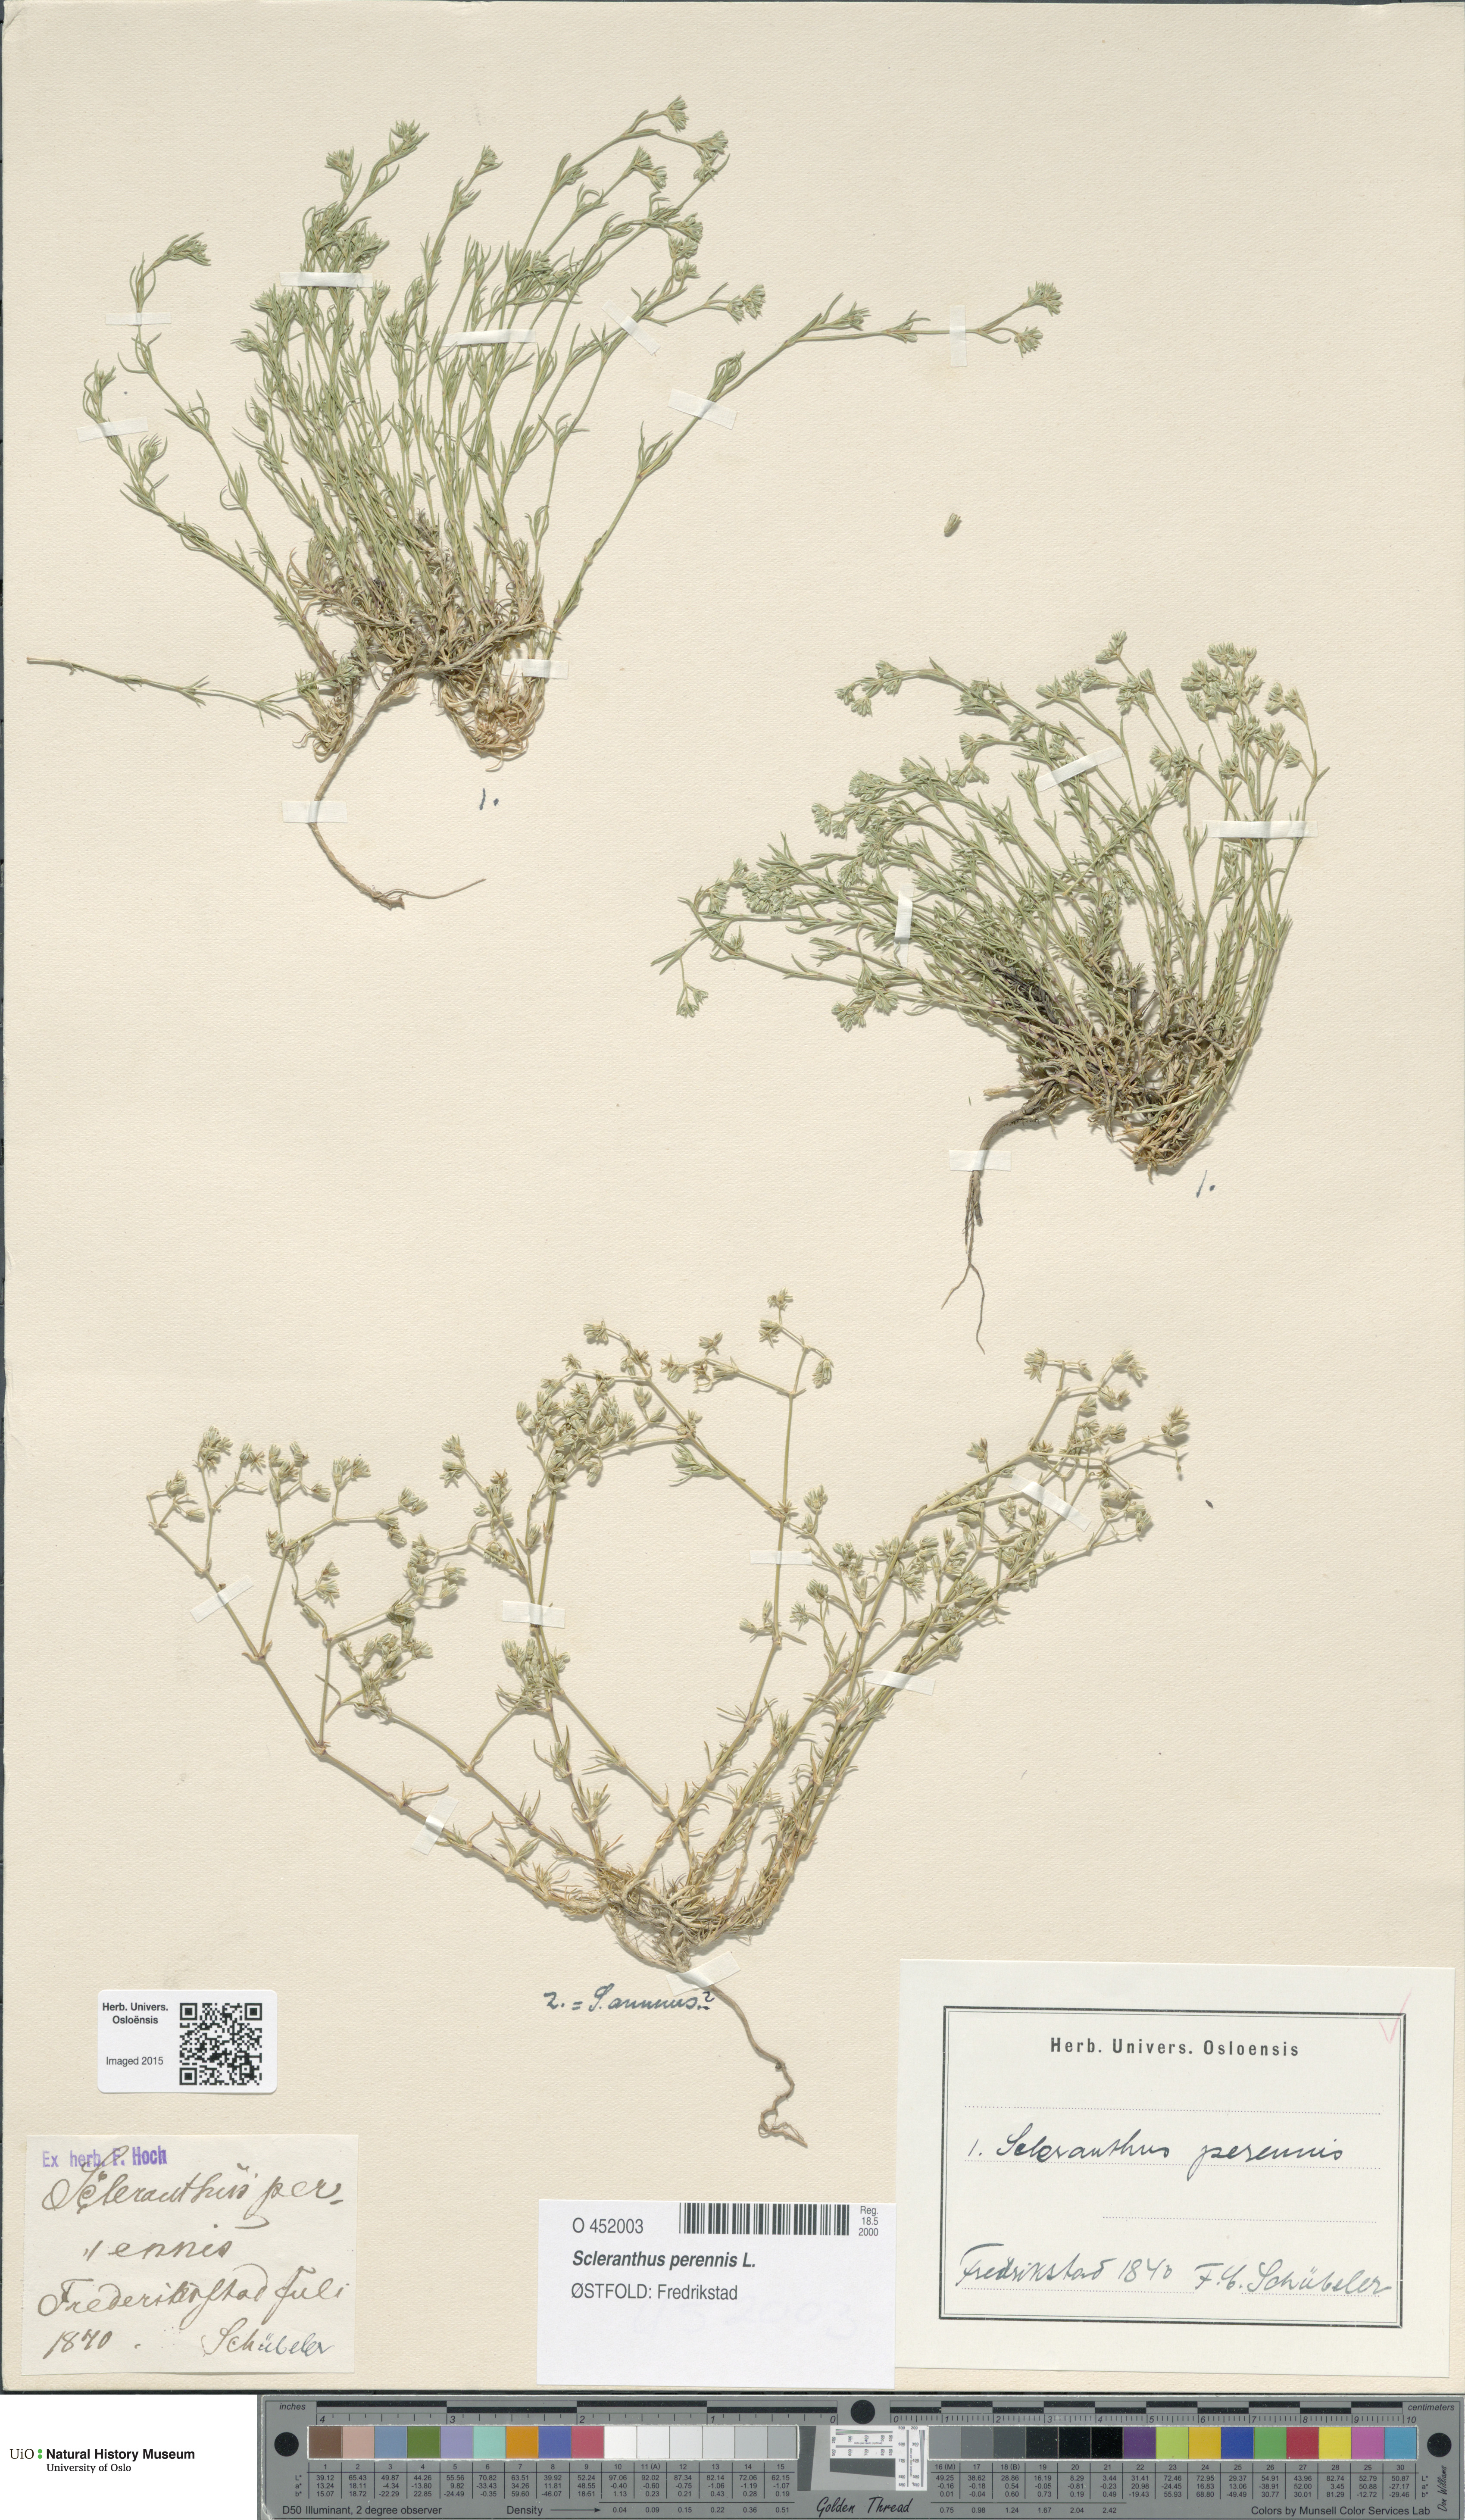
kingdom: Plantae
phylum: Tracheophyta
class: Magnoliopsida
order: Caryophyllales
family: Caryophyllaceae
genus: Scleranthus
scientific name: Scleranthus perennis
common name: Perennial knawel
